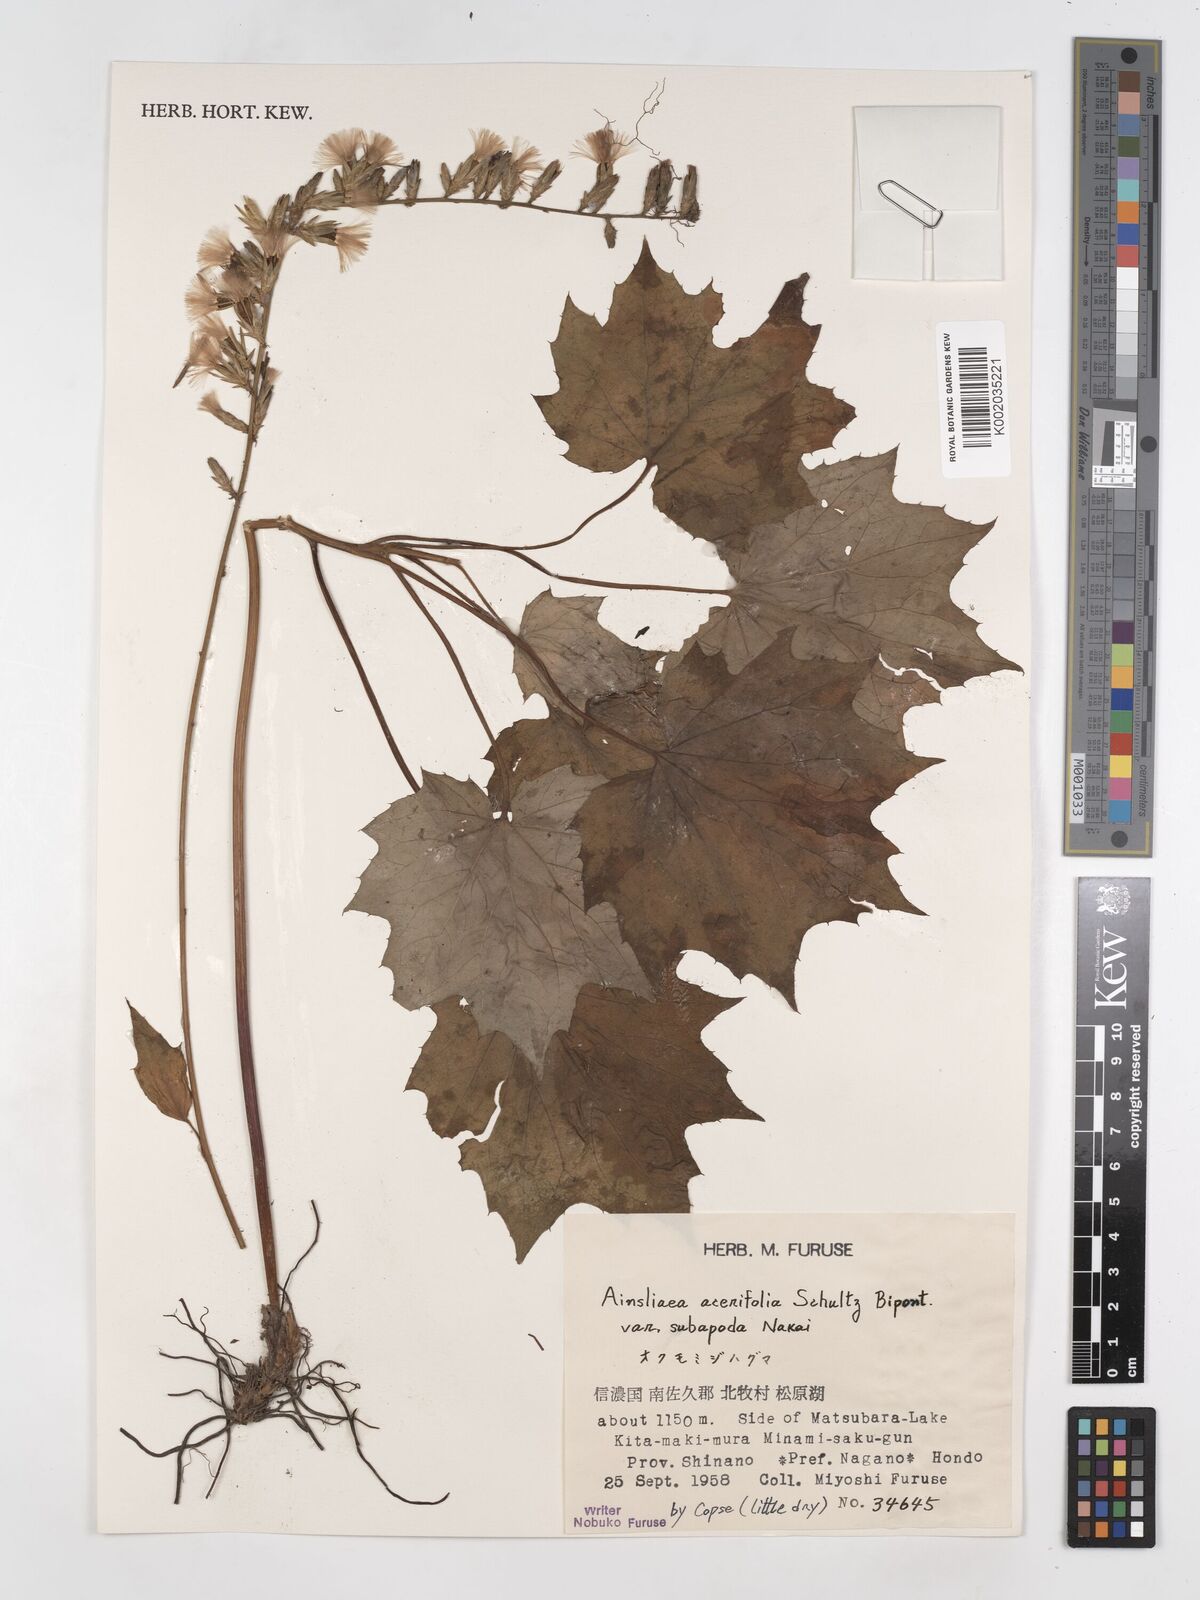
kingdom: Plantae
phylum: Tracheophyta
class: Magnoliopsida
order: Asterales
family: Asteraceae
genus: Ainsliaea
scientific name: Ainsliaea acerifolia
